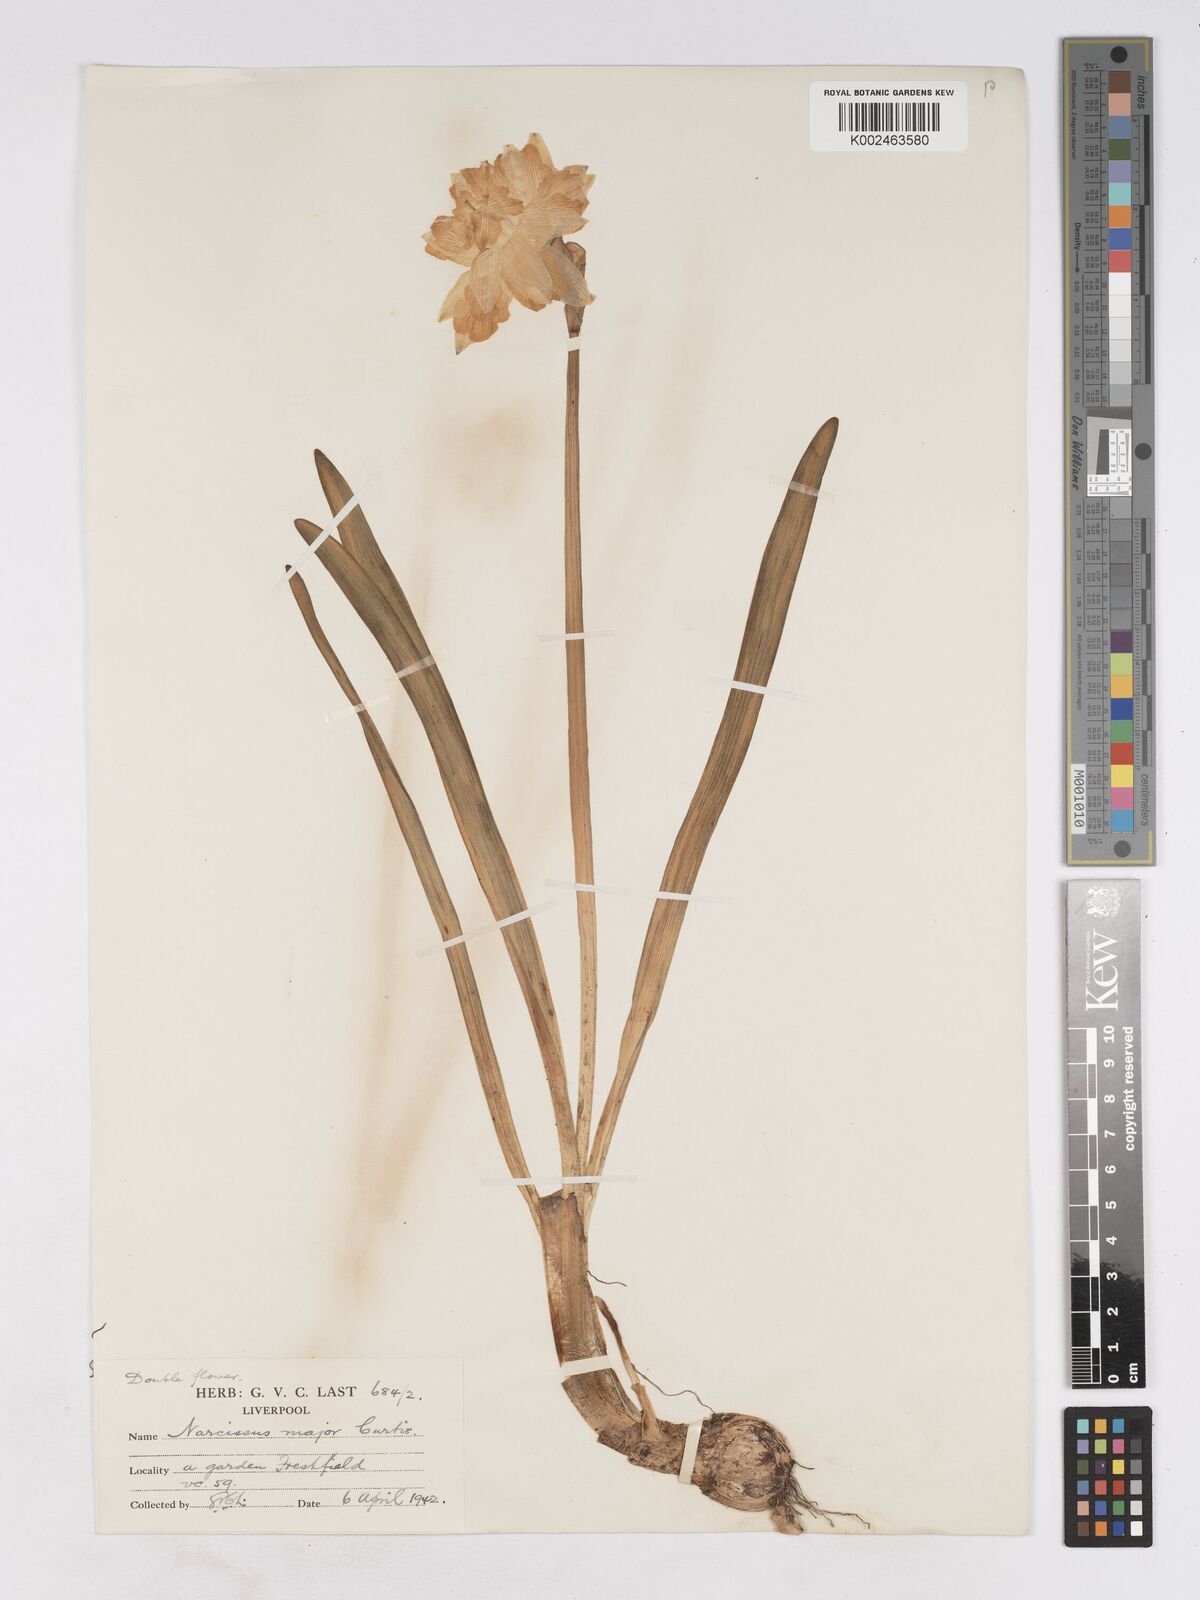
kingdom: Plantae
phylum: Tracheophyta
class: Liliopsida
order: Asparagales
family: Amaryllidaceae
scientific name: Amaryllidaceae
